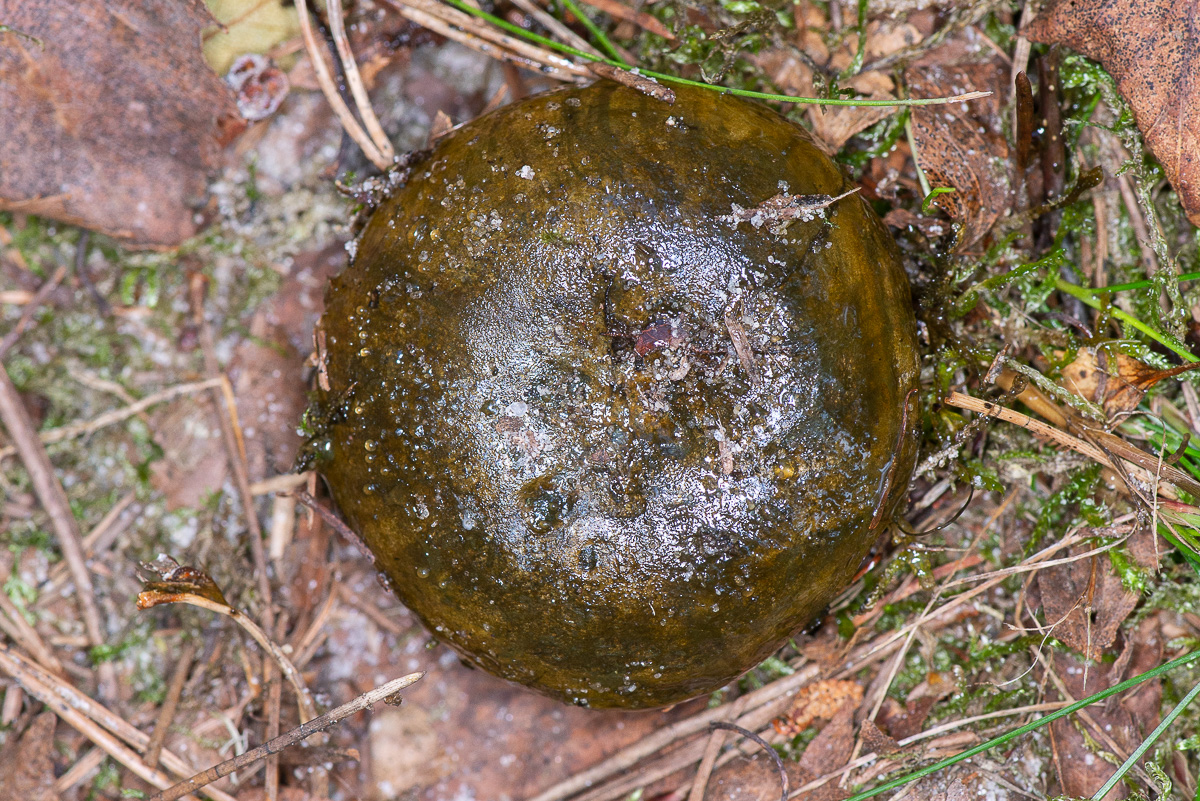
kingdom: Fungi
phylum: Basidiomycota
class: Agaricomycetes
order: Russulales
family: Russulaceae
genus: Lactarius
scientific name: Lactarius necator
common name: manddraber-mælkehat
